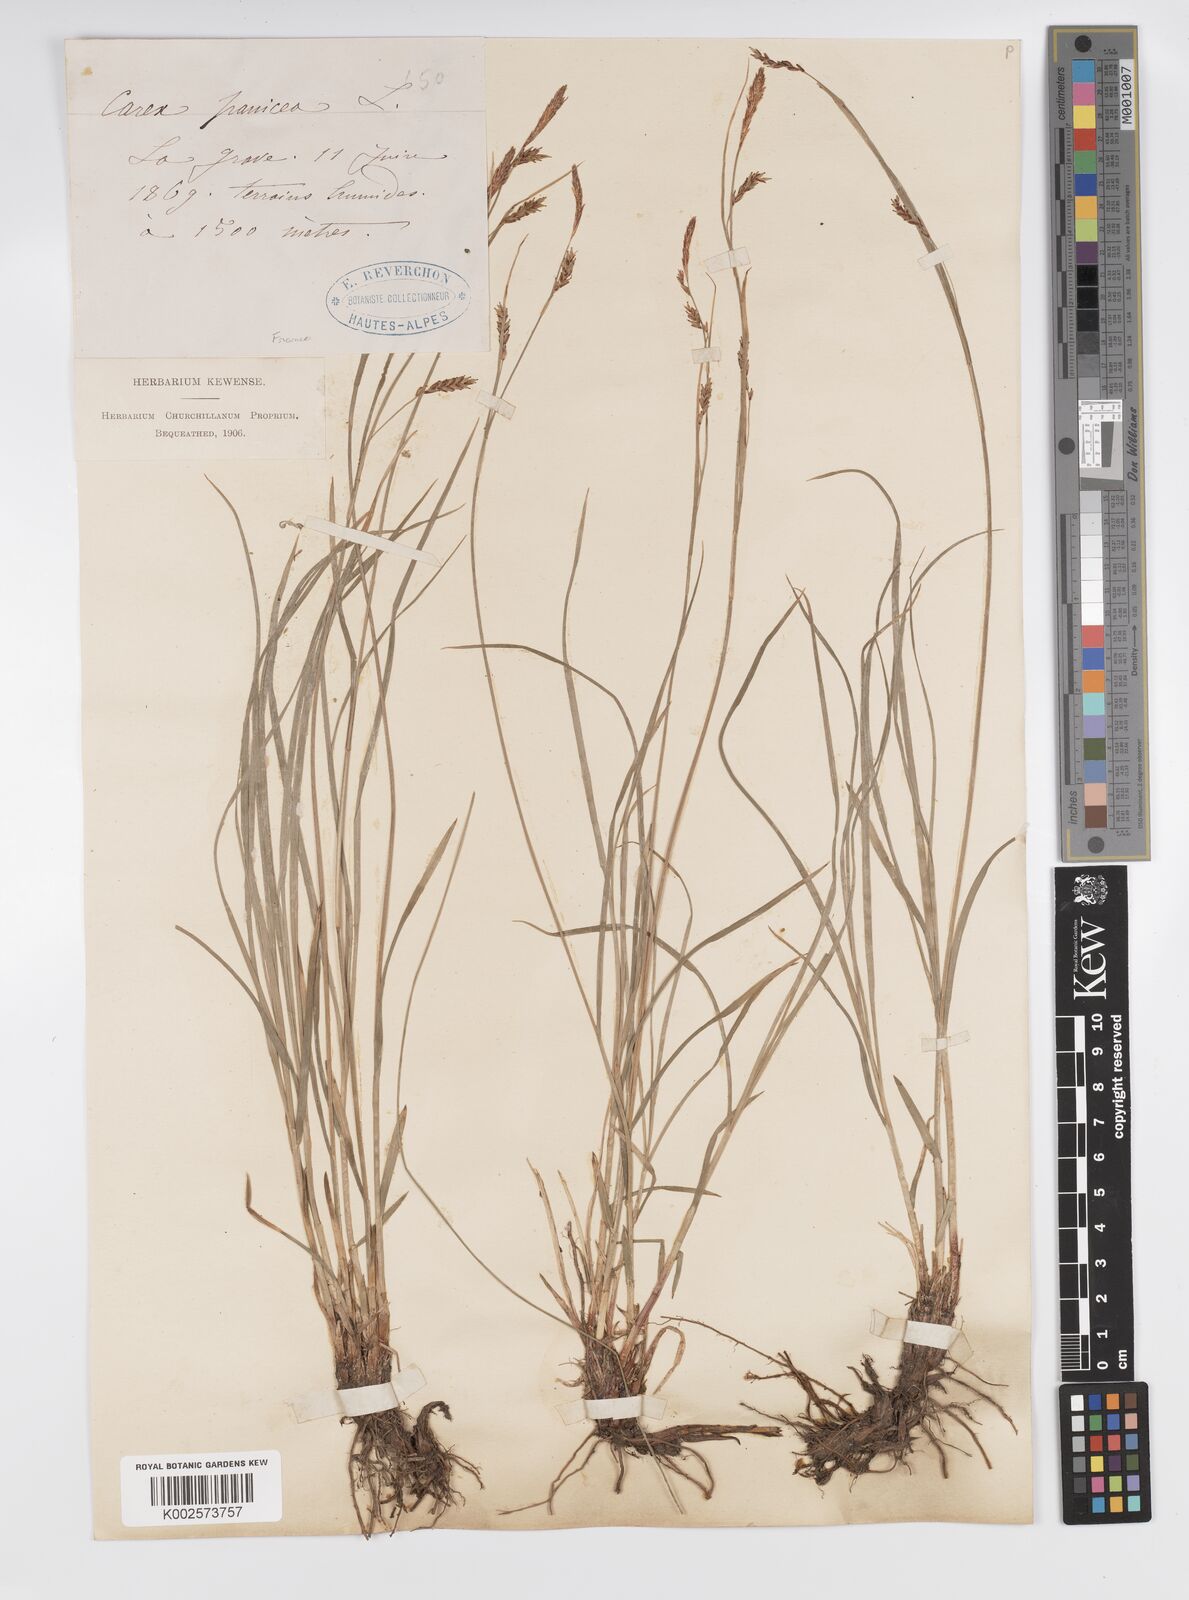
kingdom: Plantae
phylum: Tracheophyta
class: Liliopsida
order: Poales
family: Cyperaceae
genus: Carex
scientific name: Carex panicea
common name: Carnation sedge
